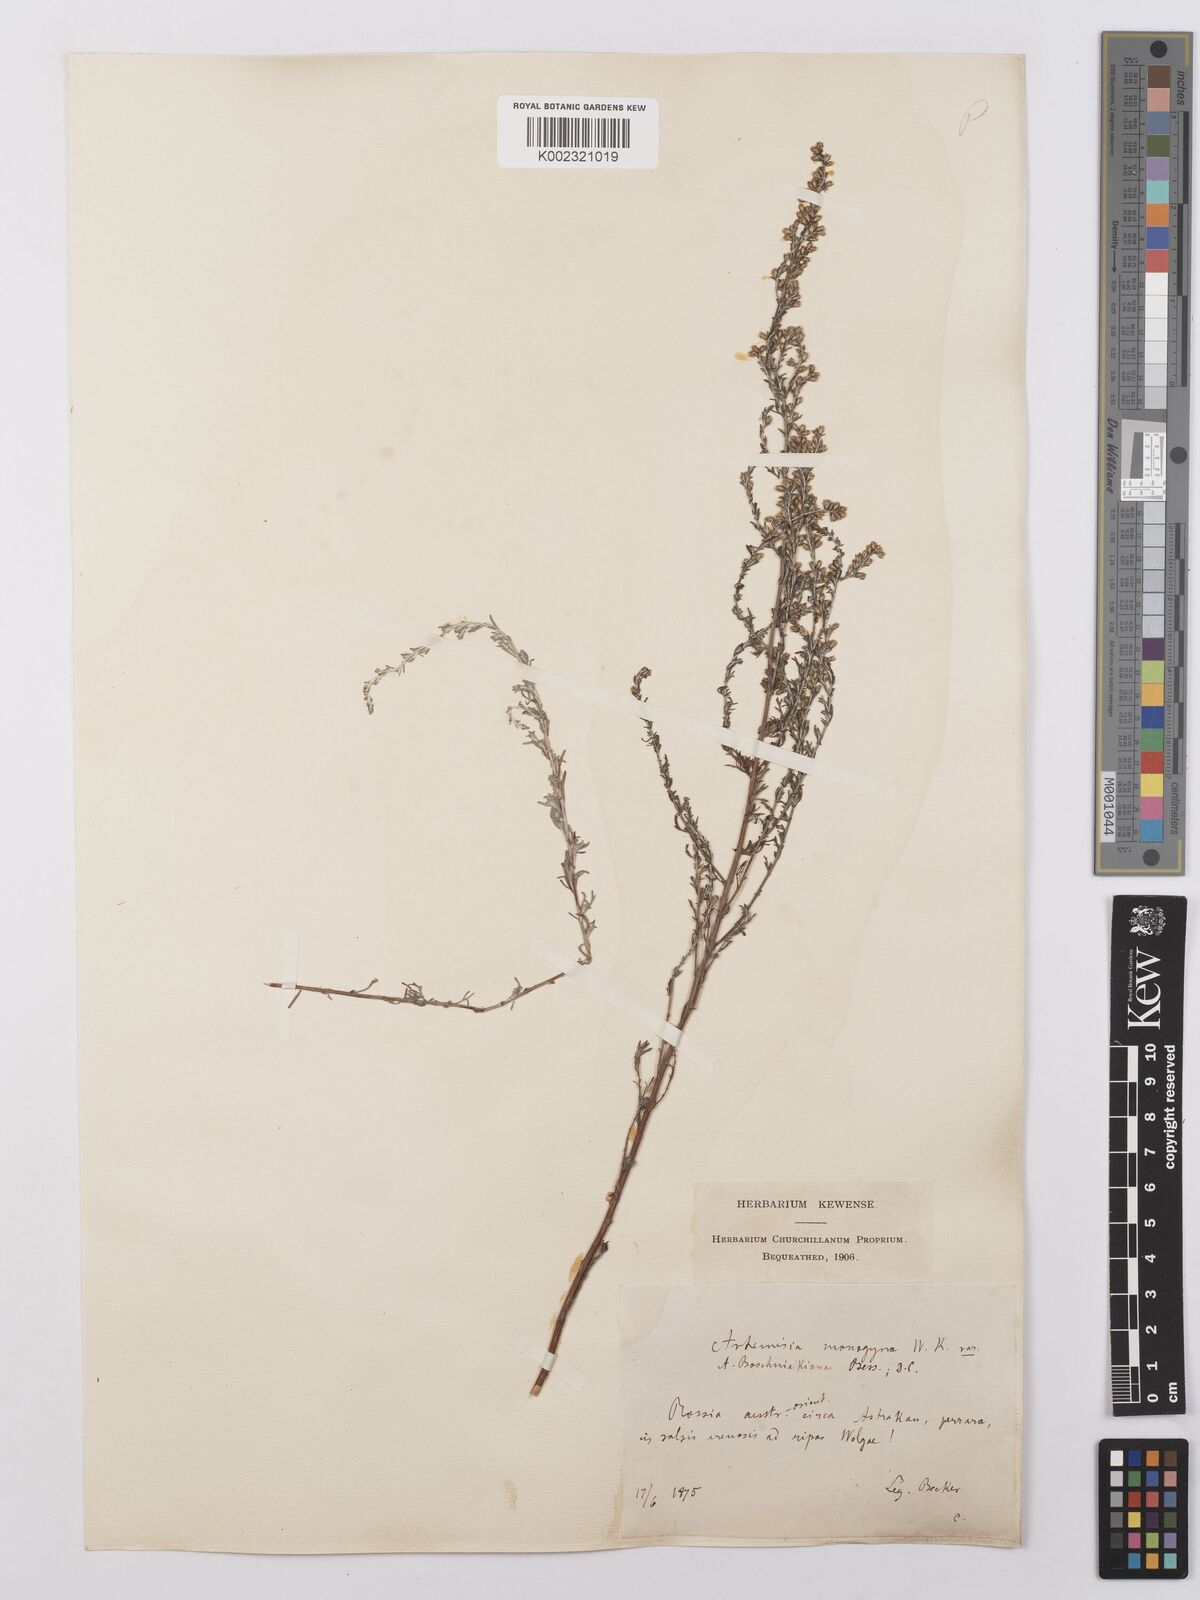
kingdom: Plantae
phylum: Tracheophyta
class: Magnoliopsida
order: Asterales
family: Asteraceae
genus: Artemisia
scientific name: Artemisia santonicum
